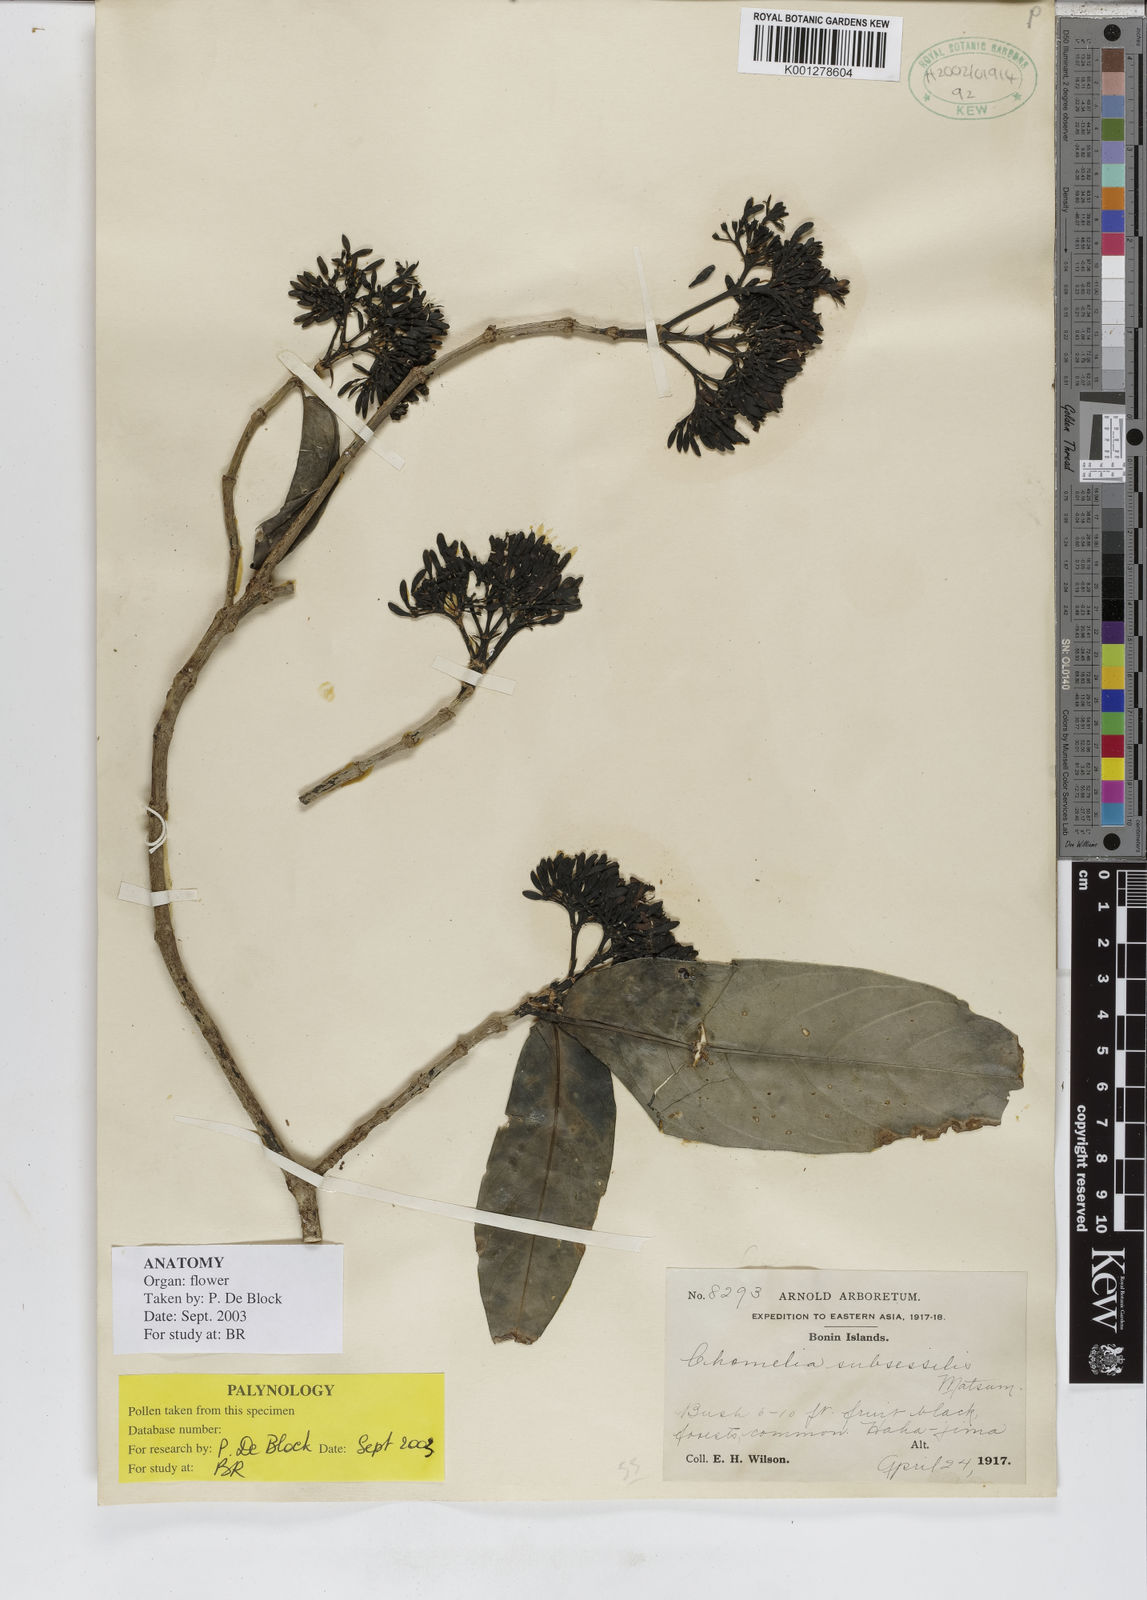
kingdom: Plantae
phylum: Tracheophyta
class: Magnoliopsida
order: Gentianales
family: Rubiaceae
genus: Tarenna
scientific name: Tarenna subsessilis
